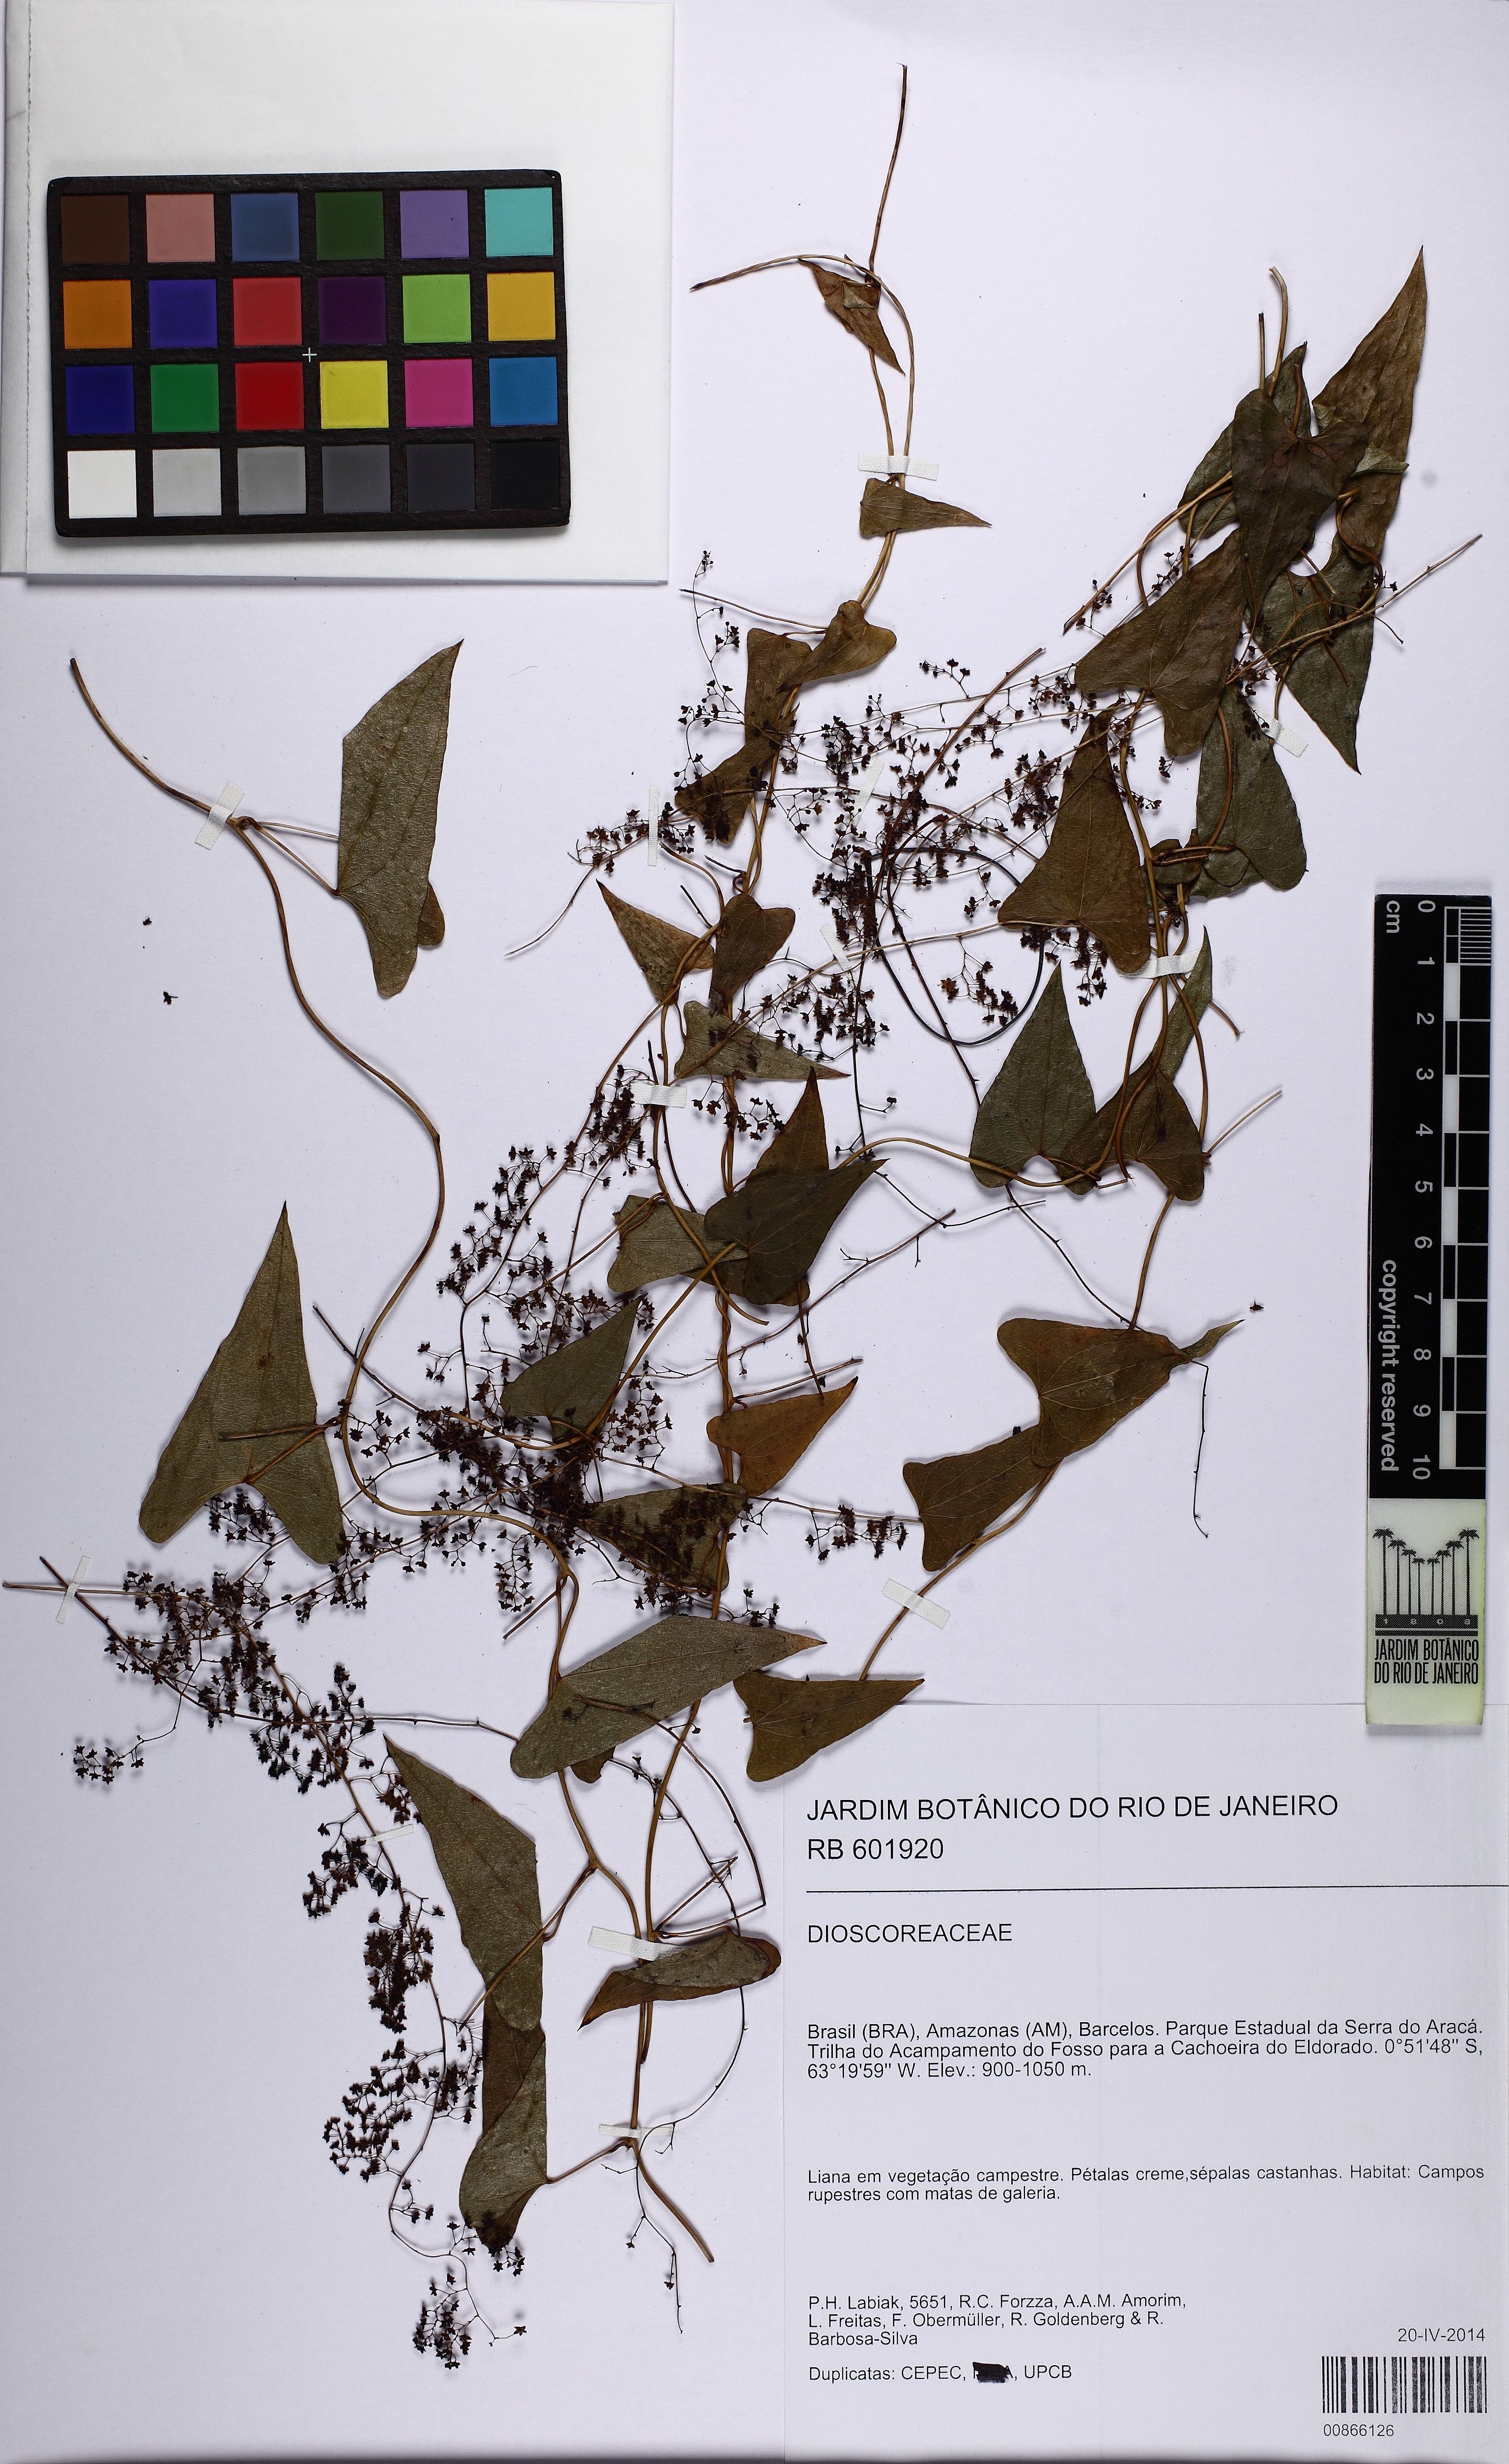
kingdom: Plantae
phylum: Tracheophyta
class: Liliopsida
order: Dioscoreales
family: Dioscoreaceae
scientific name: Dioscoreaceae
